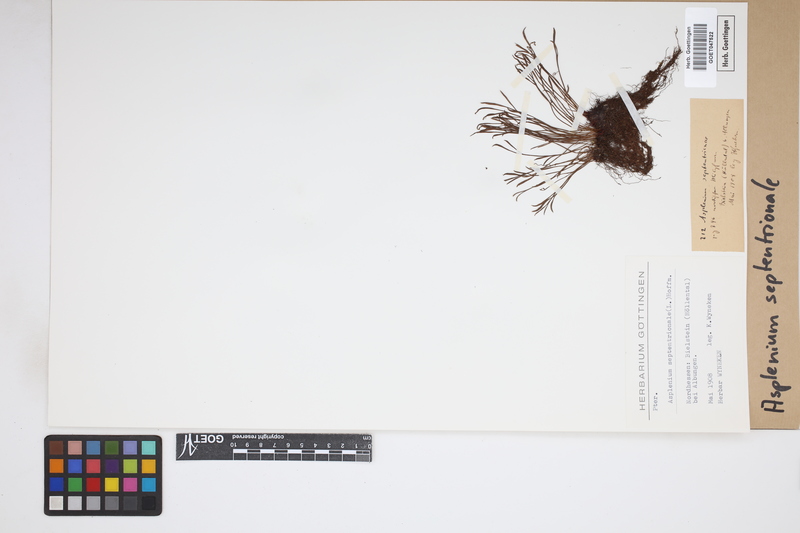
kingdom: Plantae
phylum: Tracheophyta
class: Polypodiopsida
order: Polypodiales
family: Aspleniaceae
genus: Asplenium
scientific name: Asplenium septentrionale
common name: Forked spleenwort
